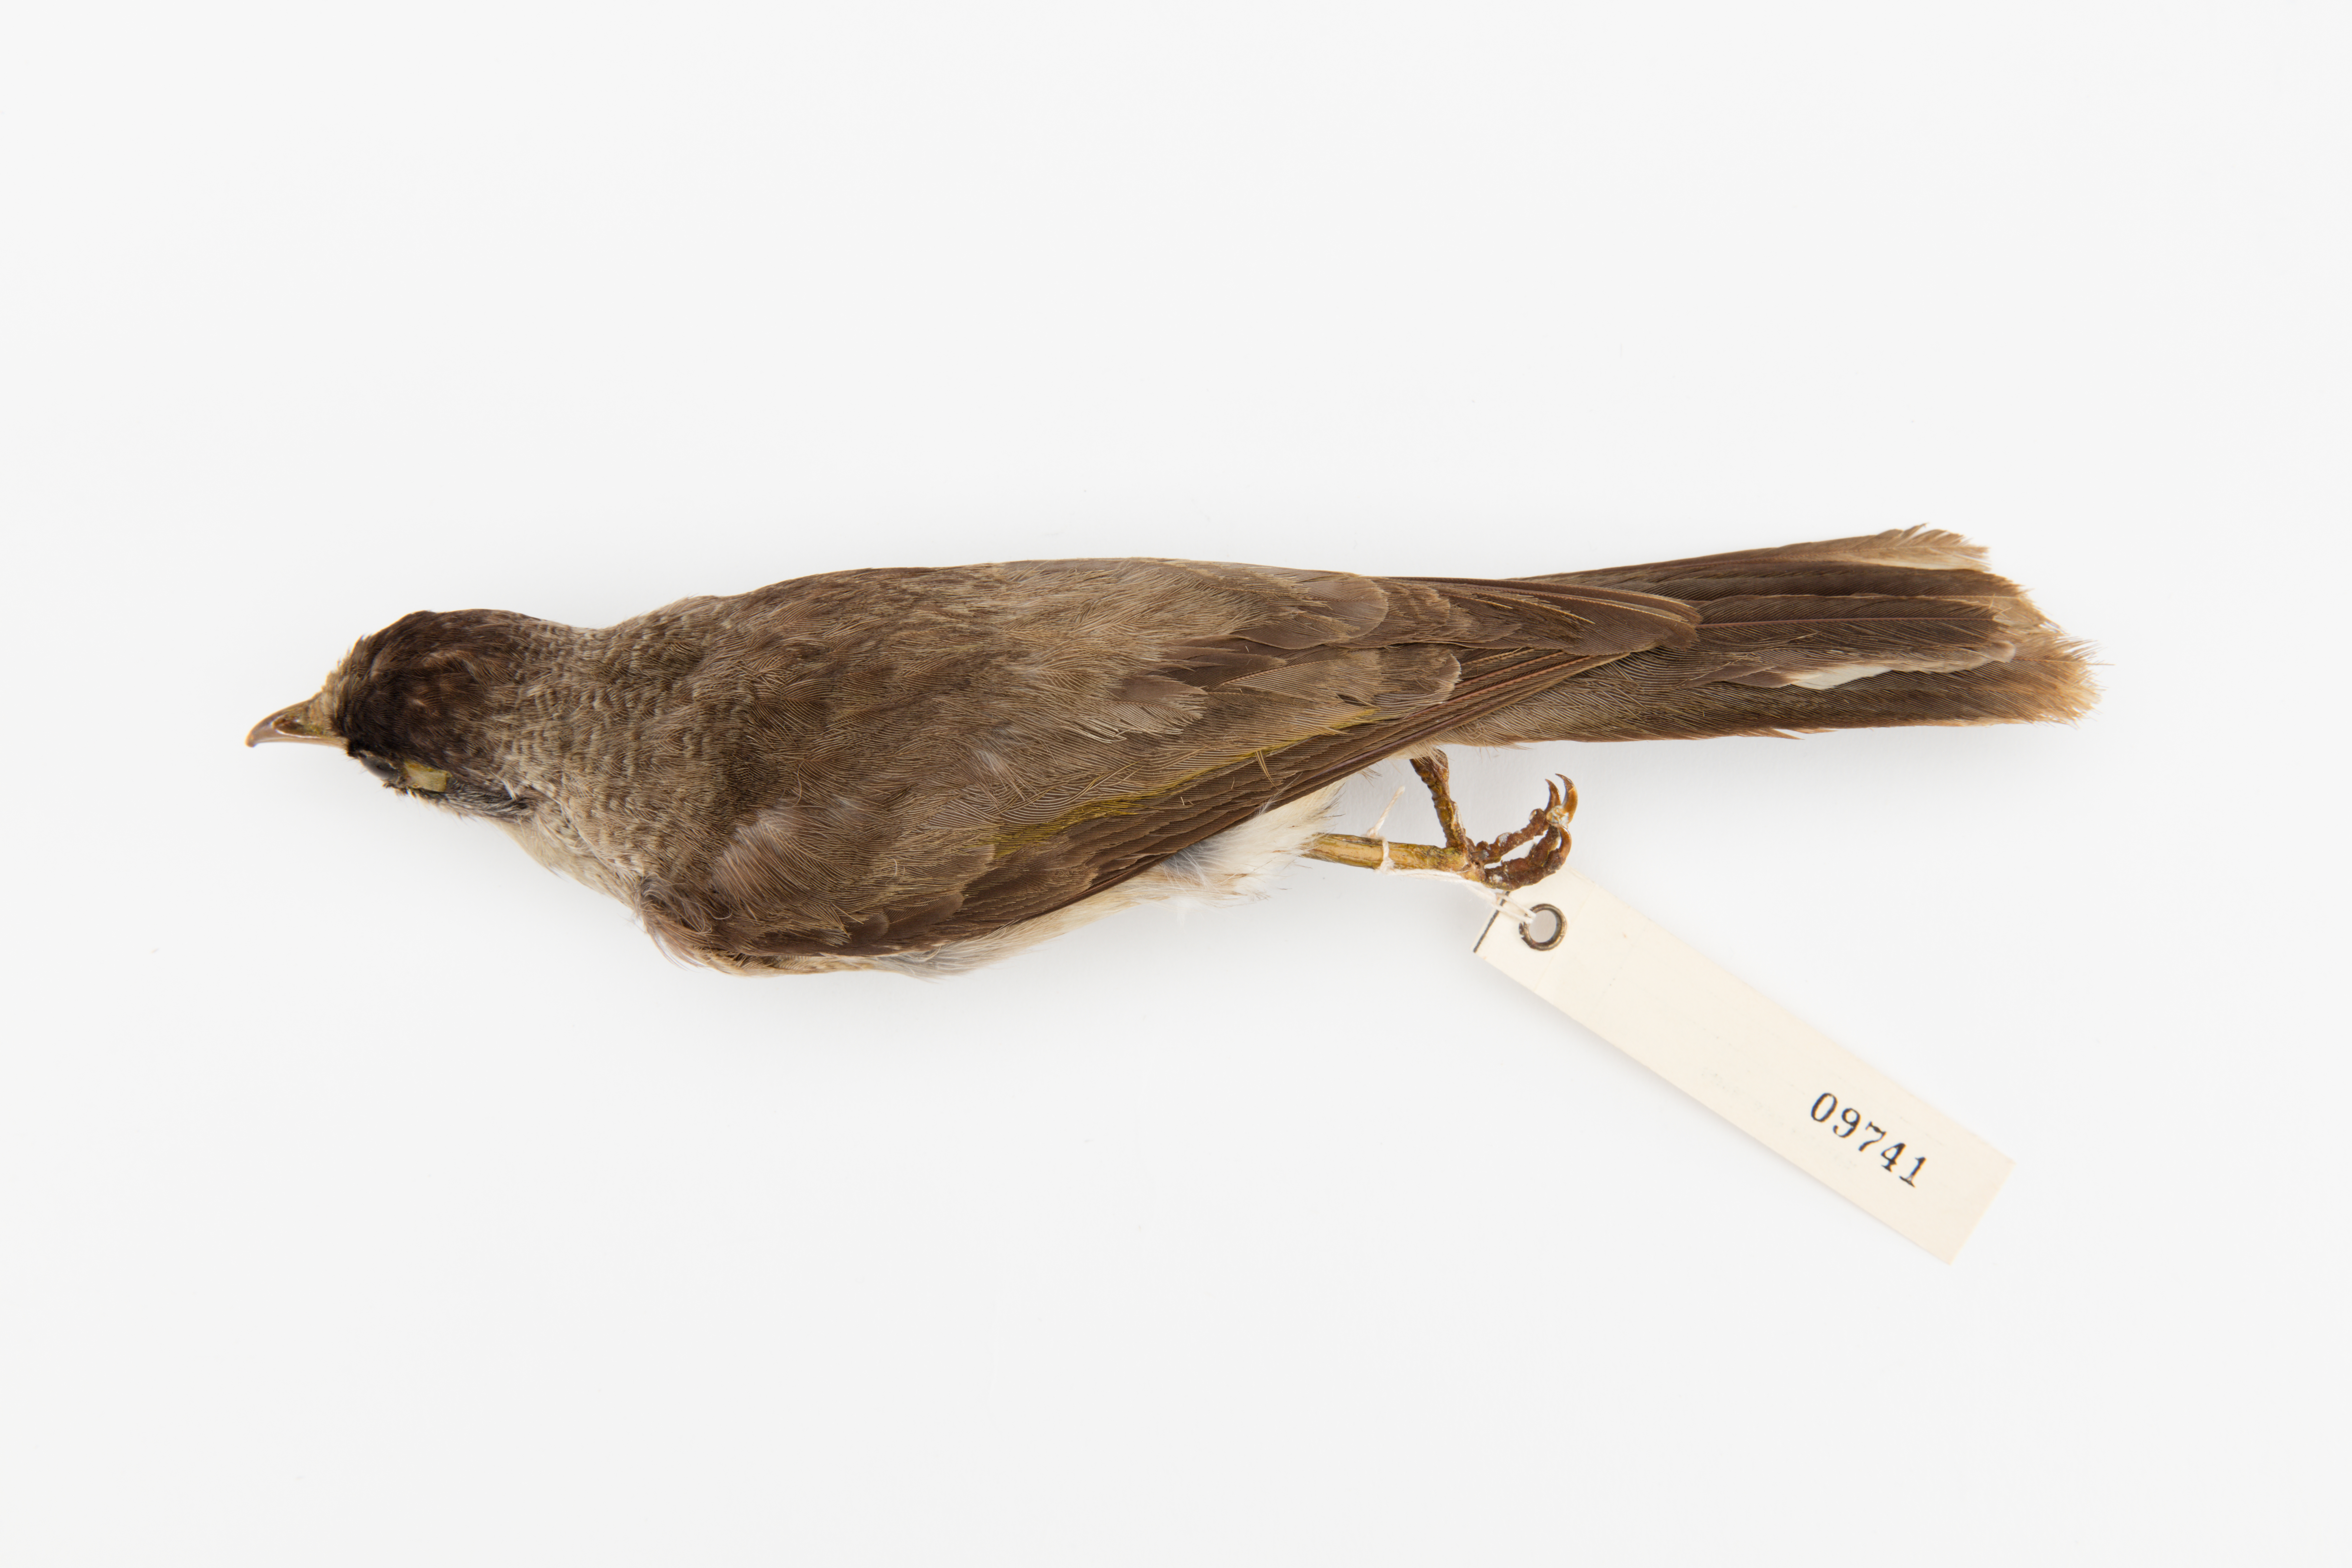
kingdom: Animalia
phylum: Chordata
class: Aves
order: Passeriformes
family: Meliphagidae
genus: Manorina
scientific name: Manorina melanocephala
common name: Noisy miner
